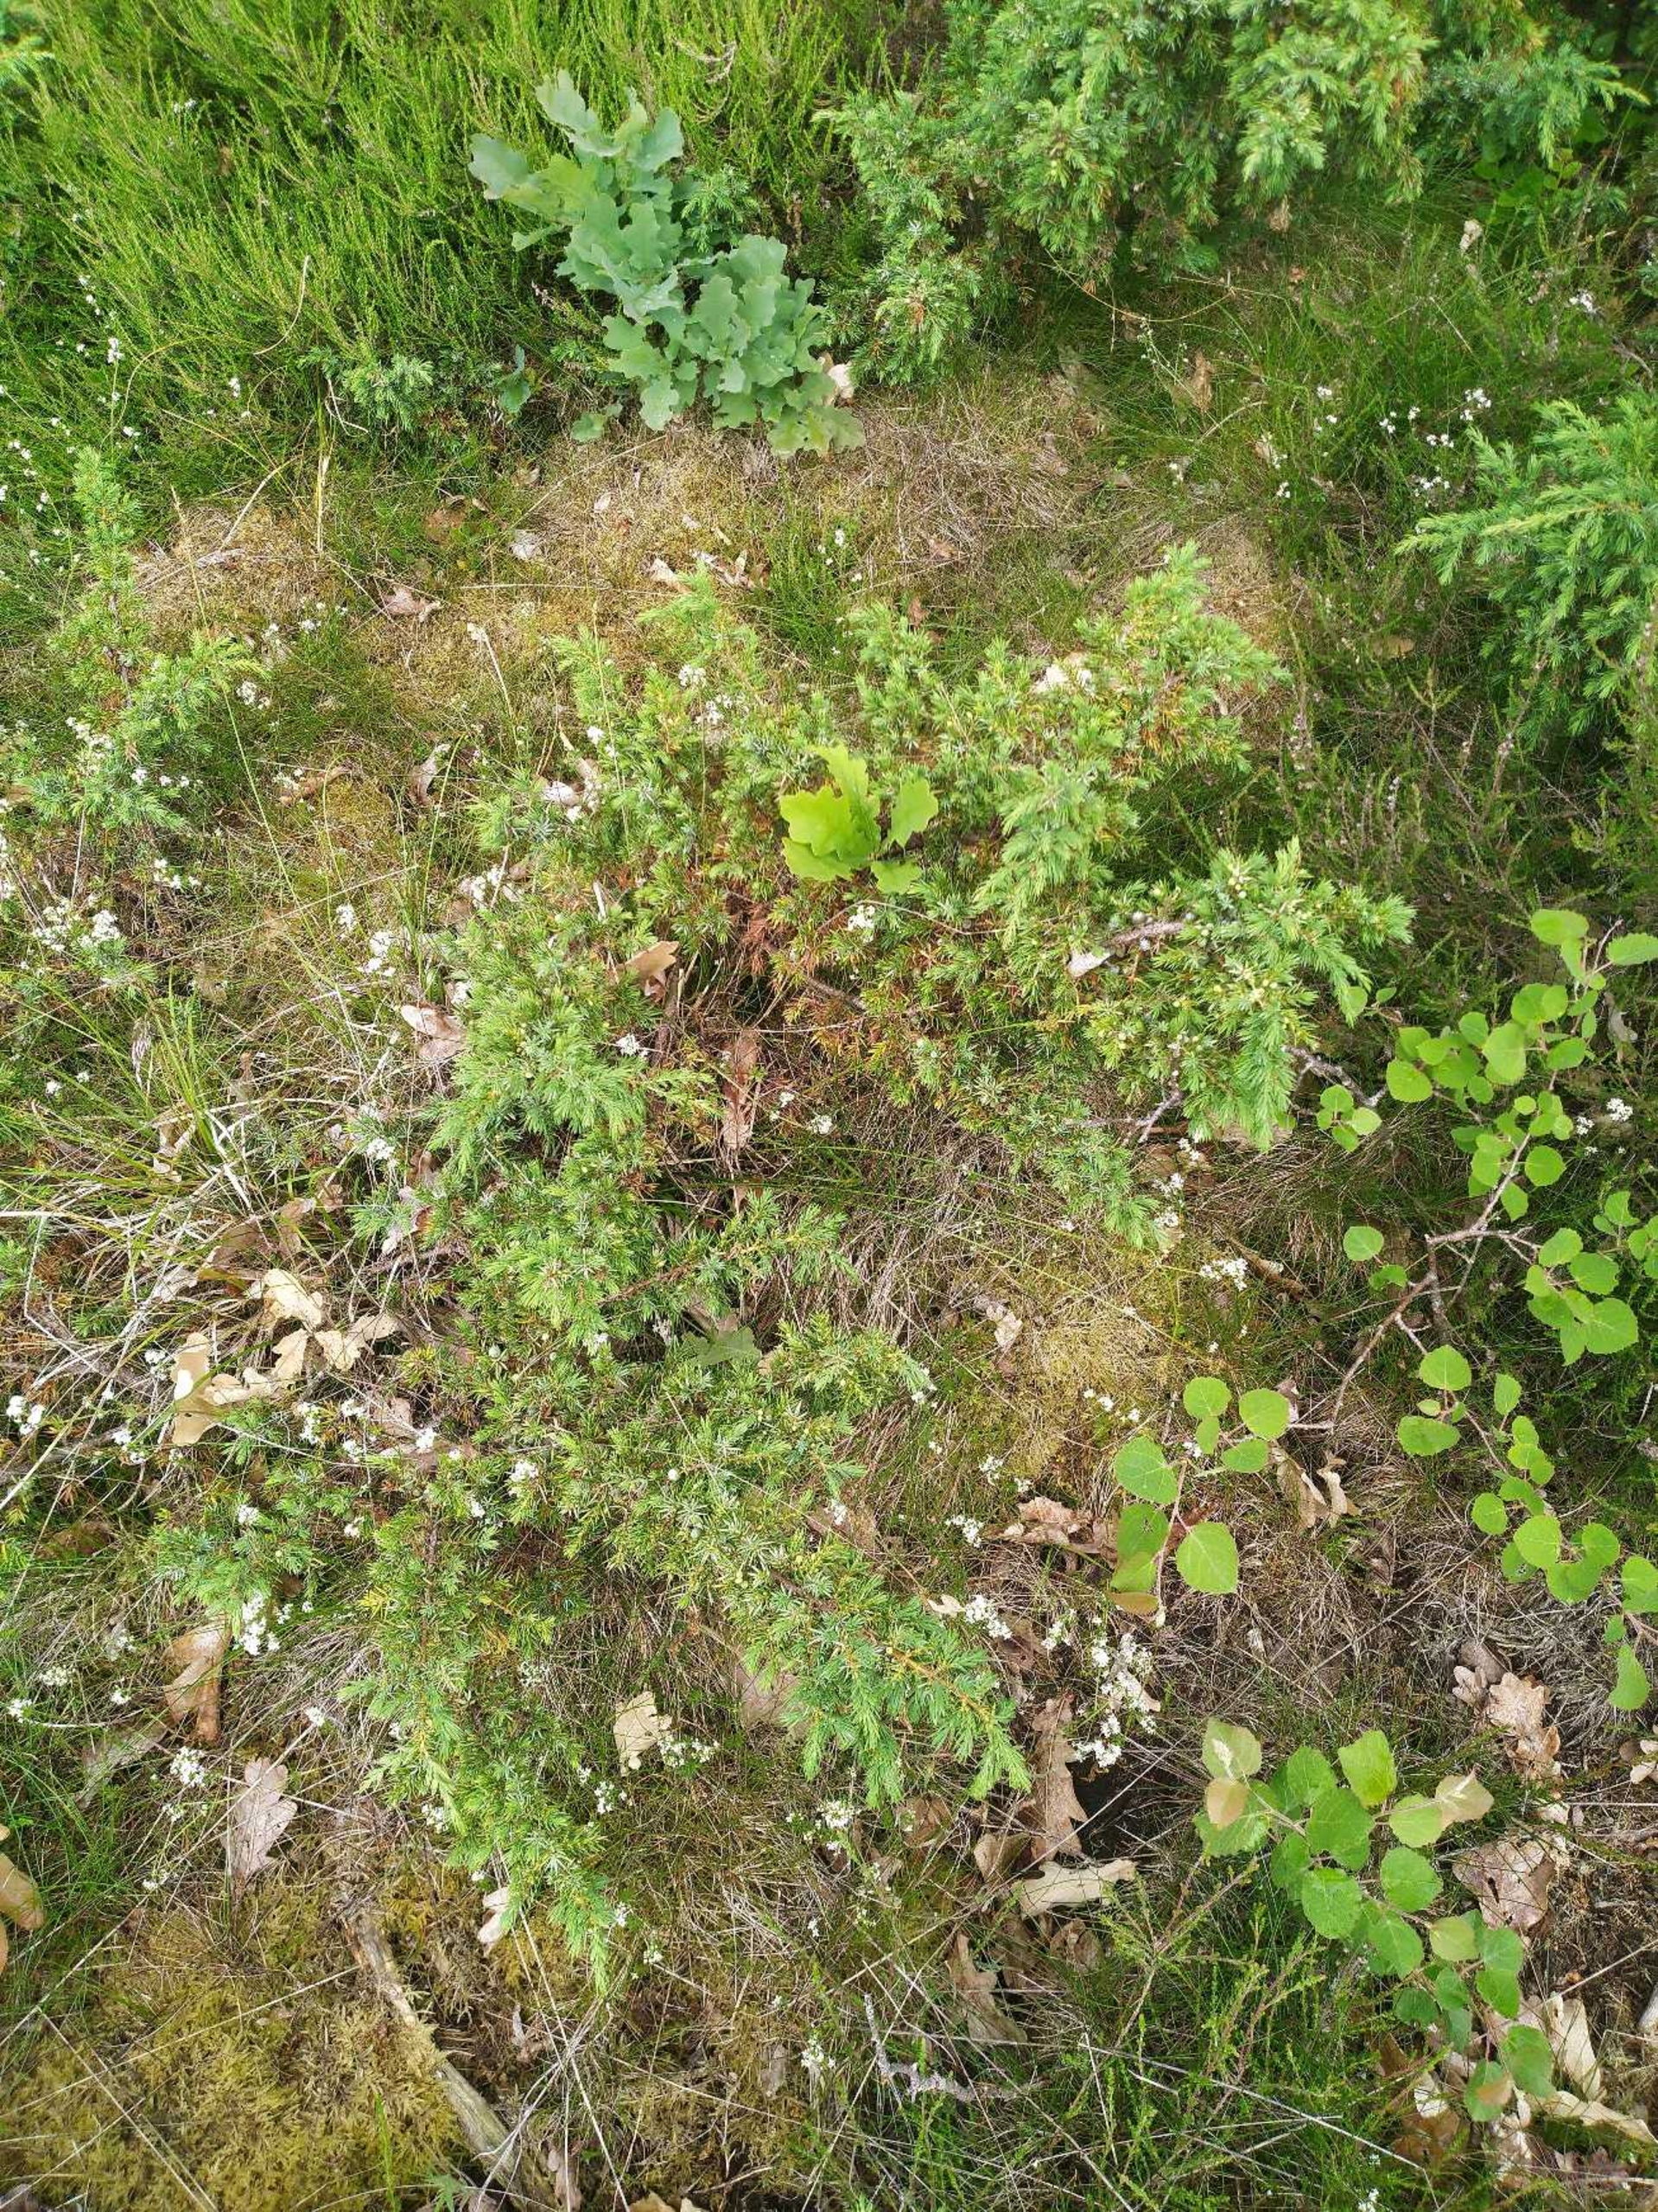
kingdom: Plantae
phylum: Tracheophyta
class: Pinopsida
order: Pinales
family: Cupressaceae
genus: Juniperus
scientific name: Juniperus communis
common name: Almindelig ene
